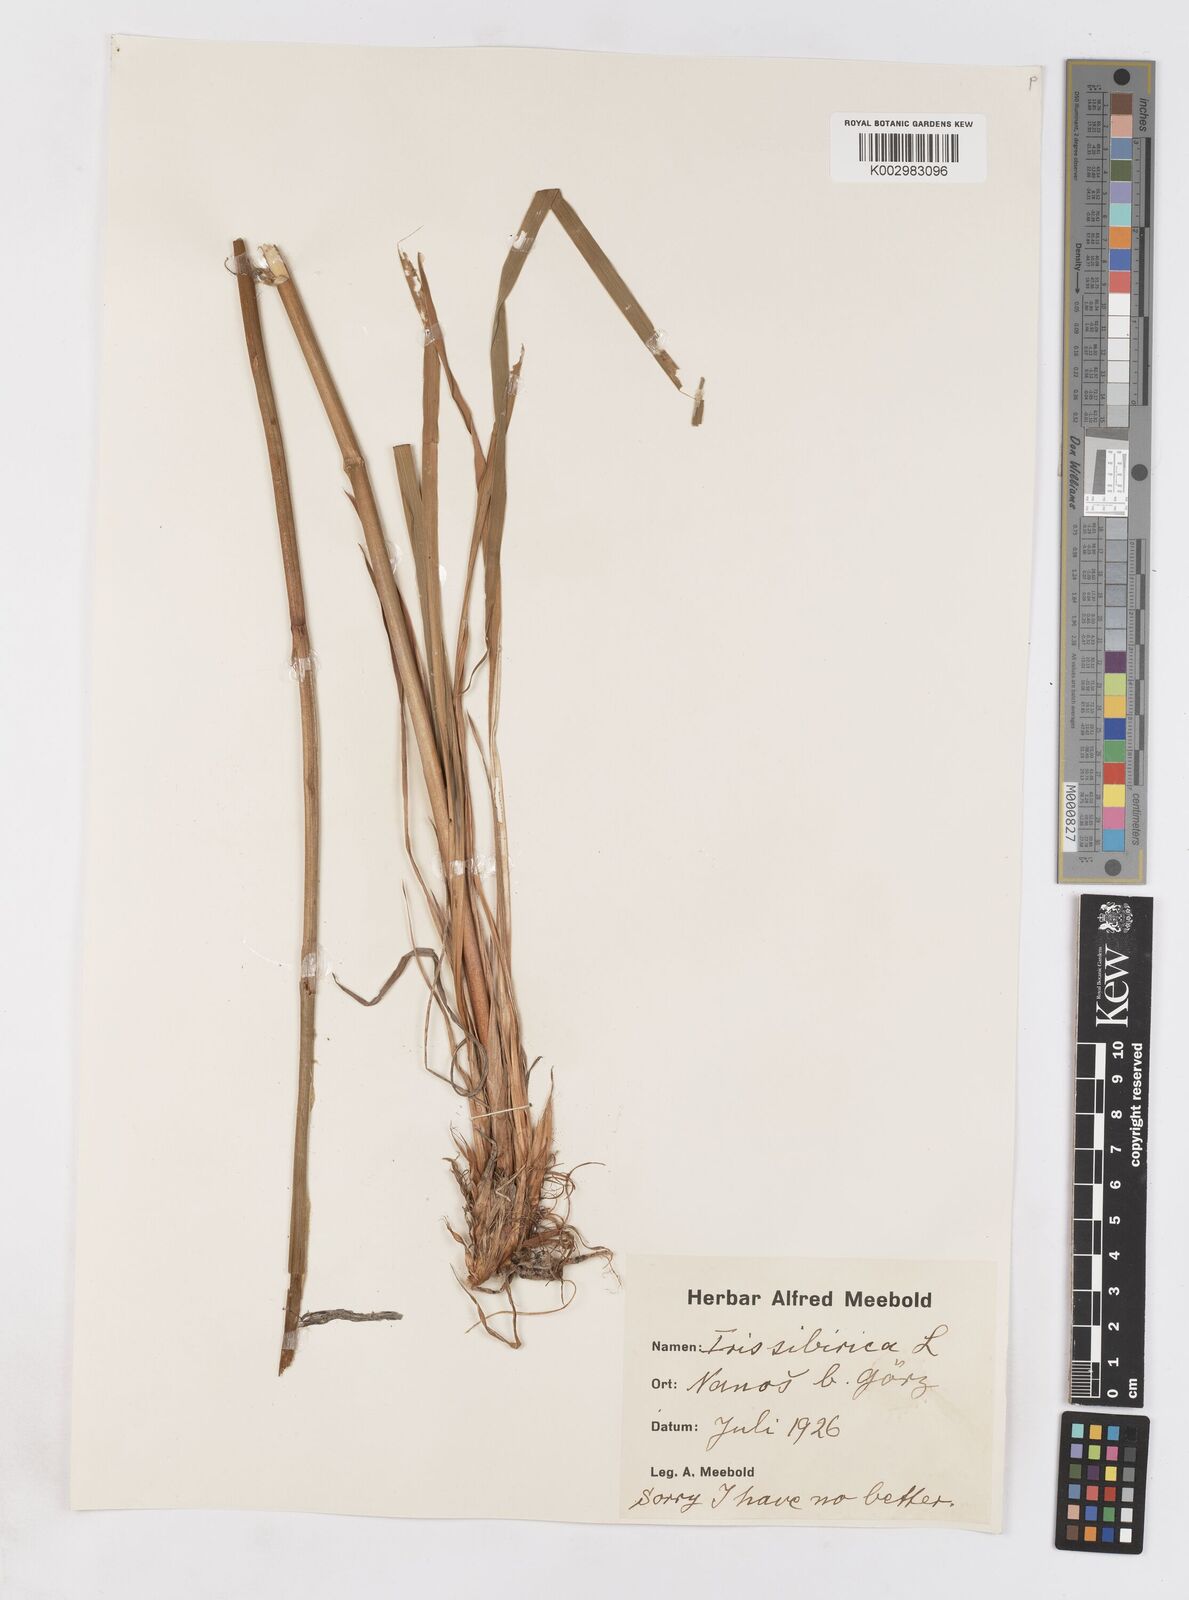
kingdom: Plantae
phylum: Tracheophyta
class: Liliopsida
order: Asparagales
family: Iridaceae
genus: Iris
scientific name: Iris sibirica
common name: Siberian iris
